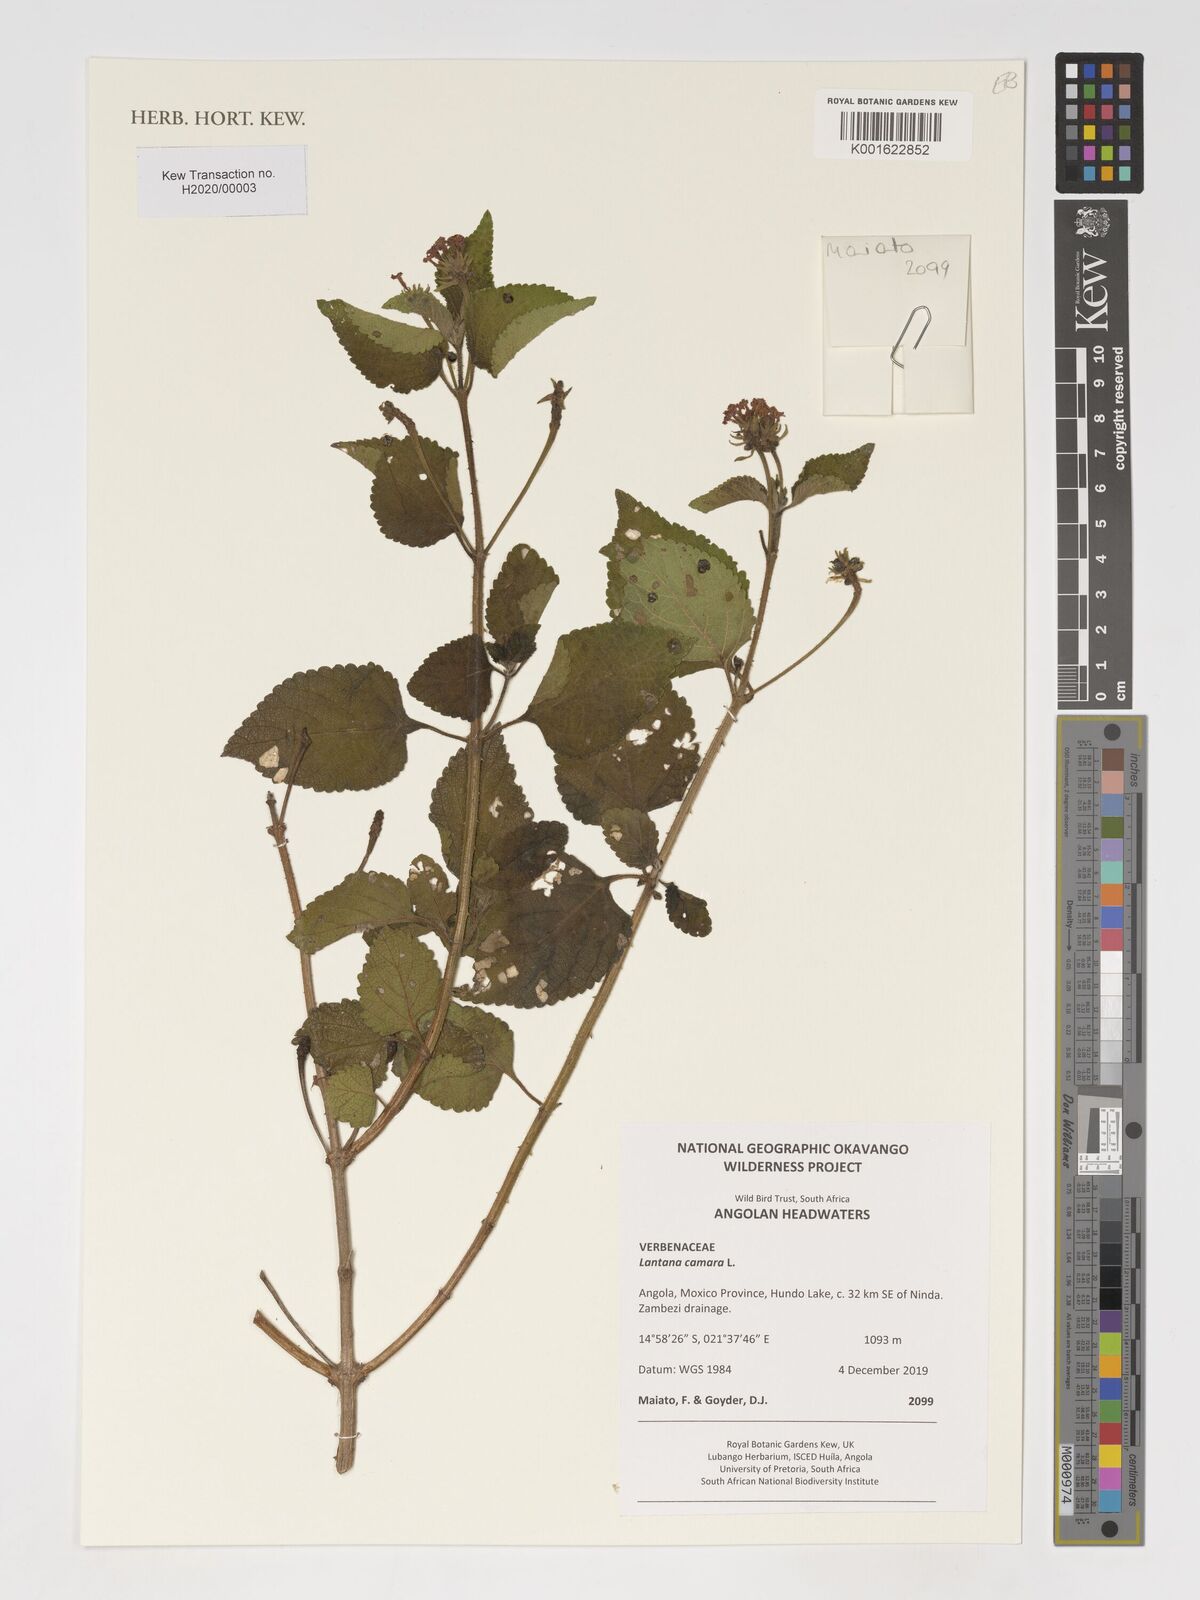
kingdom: Plantae
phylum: Tracheophyta
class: Magnoliopsida
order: Lamiales
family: Verbenaceae
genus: Lantana
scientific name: Lantana camara
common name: Lantana
